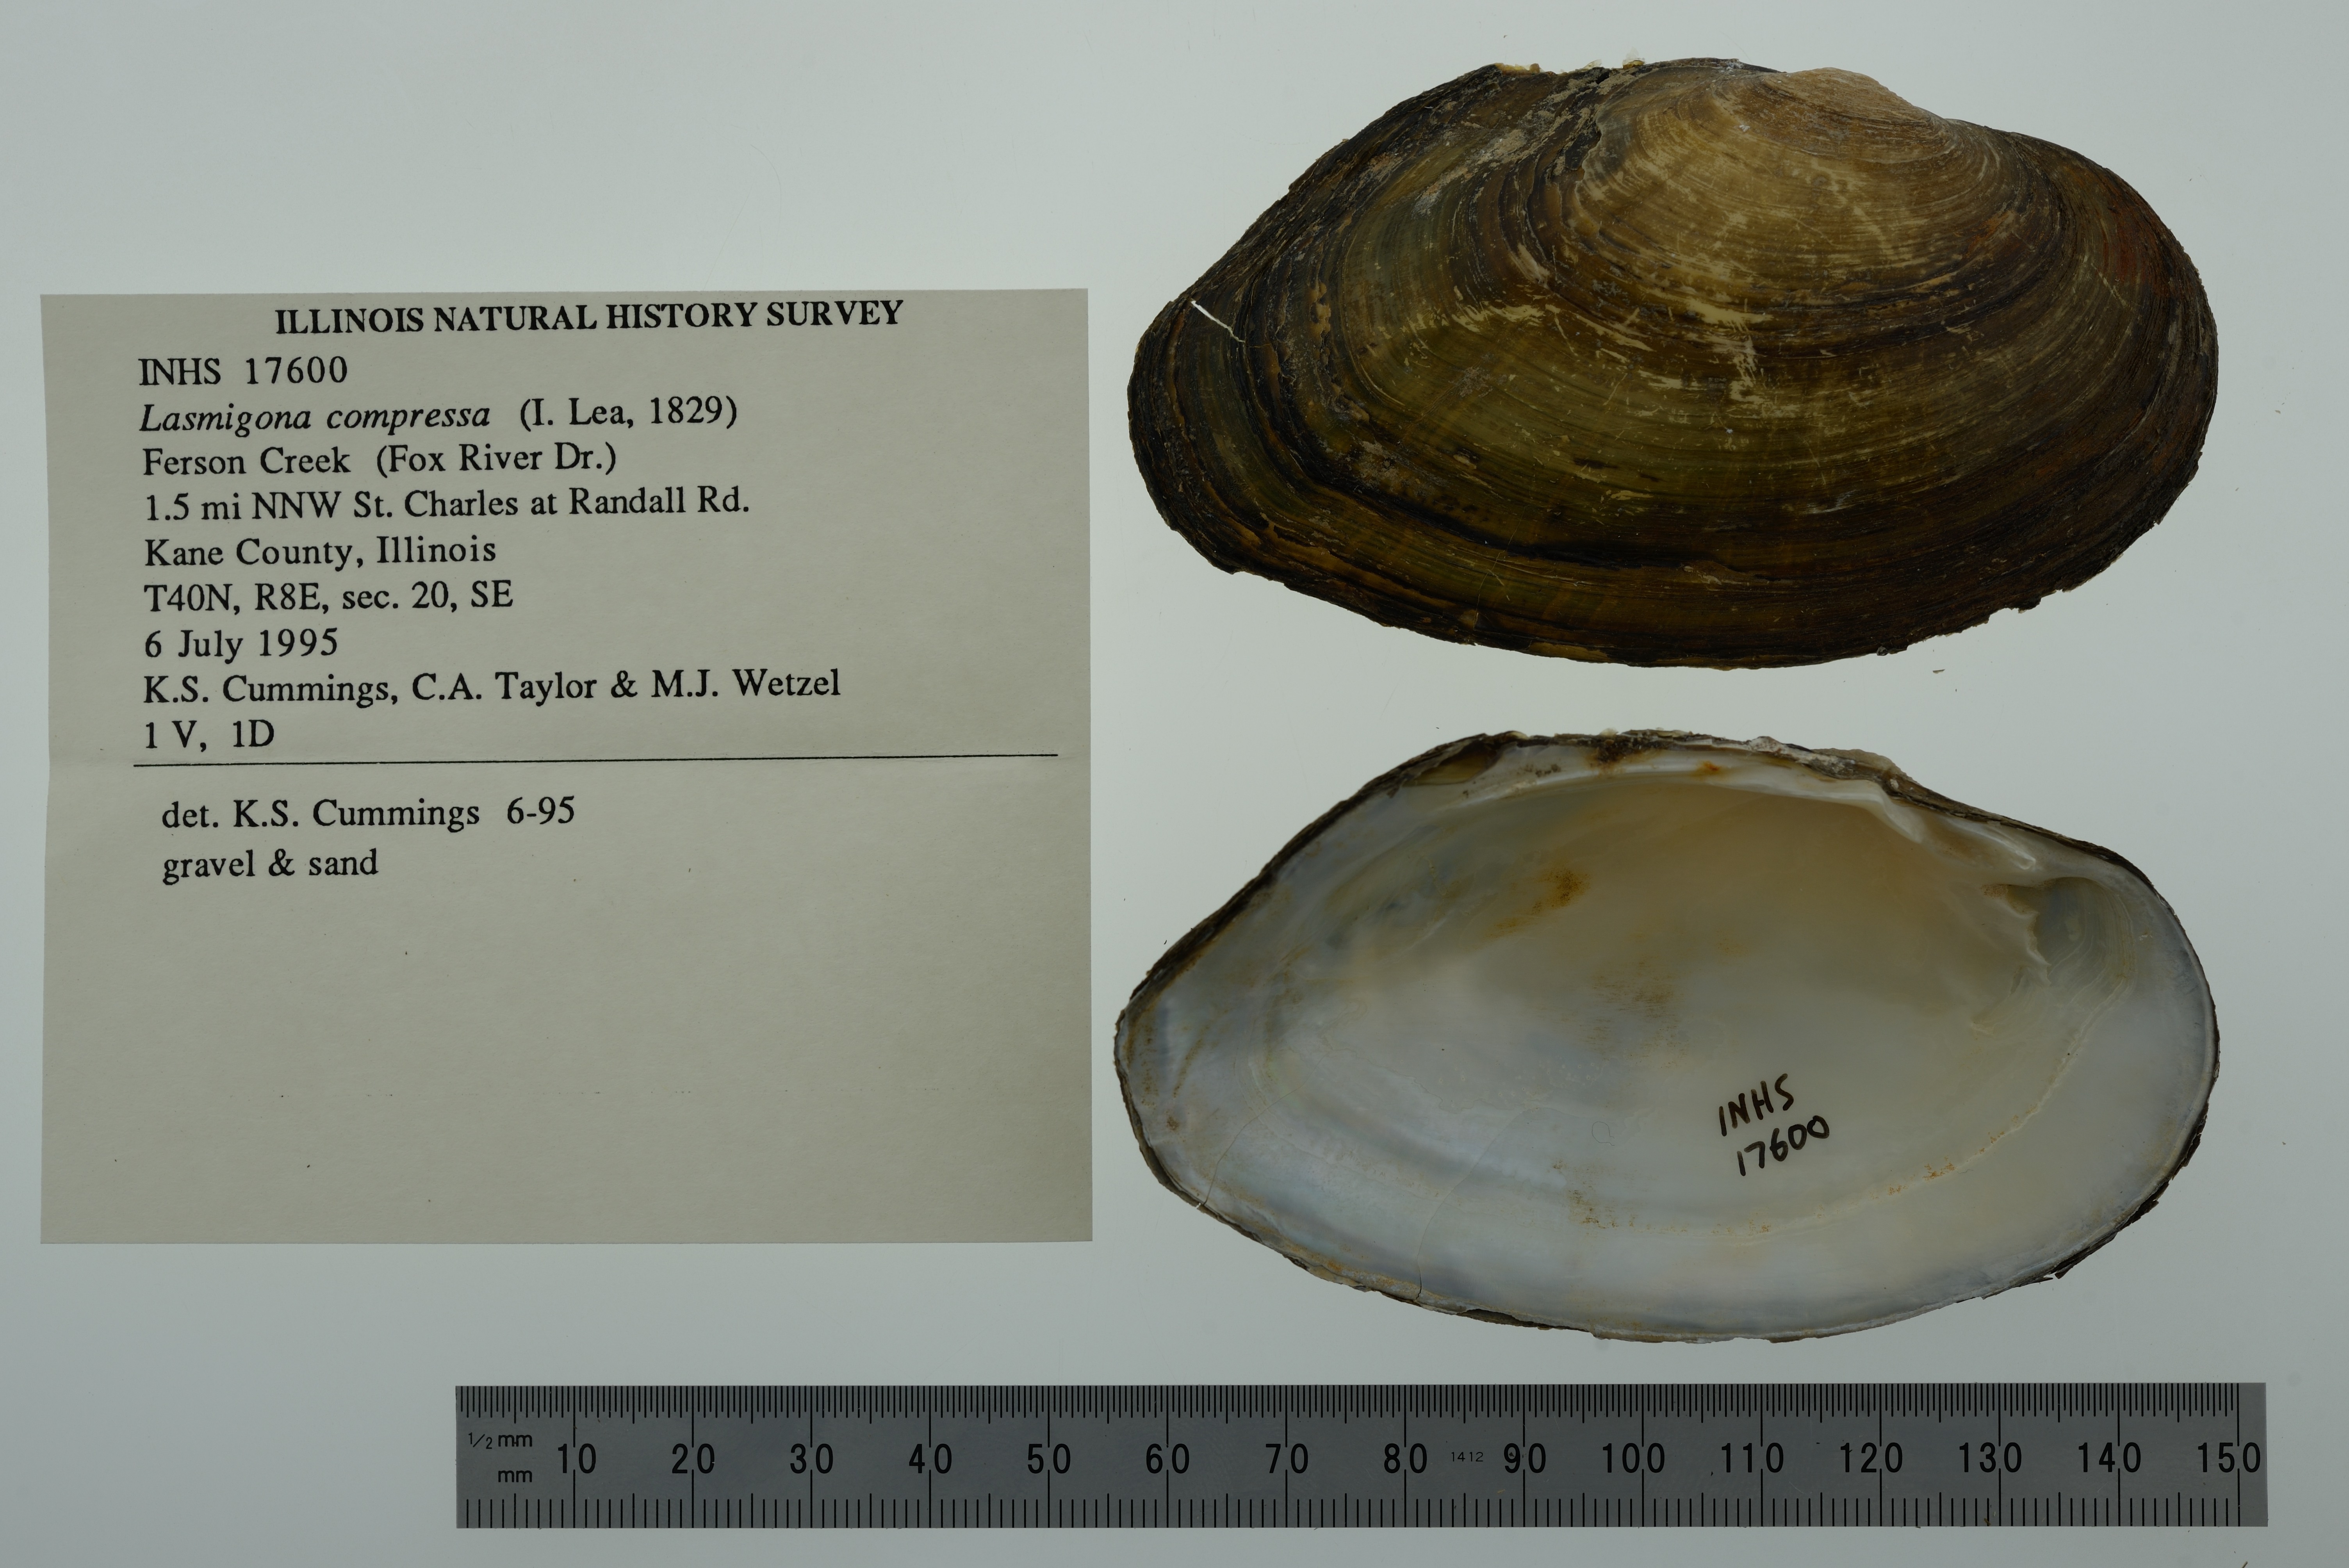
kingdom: Animalia
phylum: Mollusca
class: Bivalvia
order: Unionida
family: Unionidae
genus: Lasmigona
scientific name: Lasmigona compressa
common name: Creek heelsplitter
